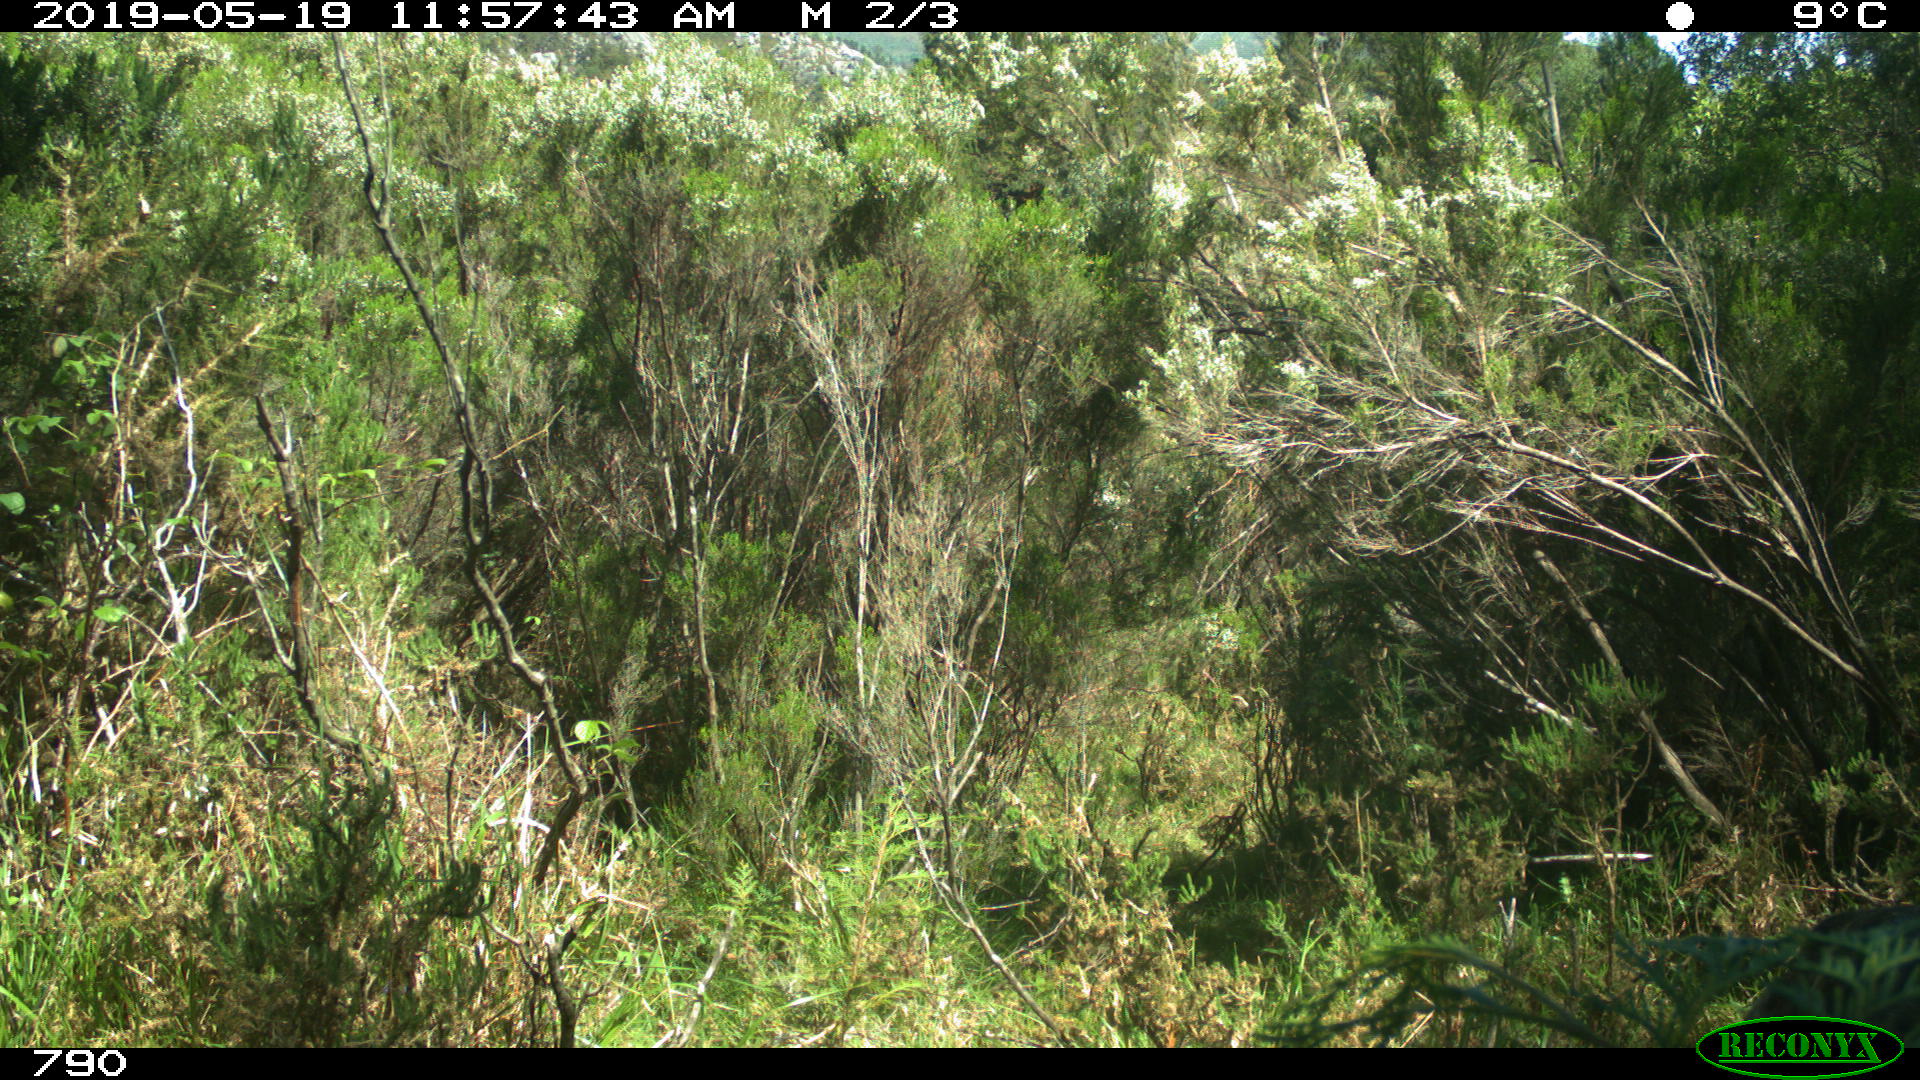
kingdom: Animalia
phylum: Chordata
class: Mammalia
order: Carnivora
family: Canidae
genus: Canis
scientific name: Canis lupus
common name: Gray wolf
